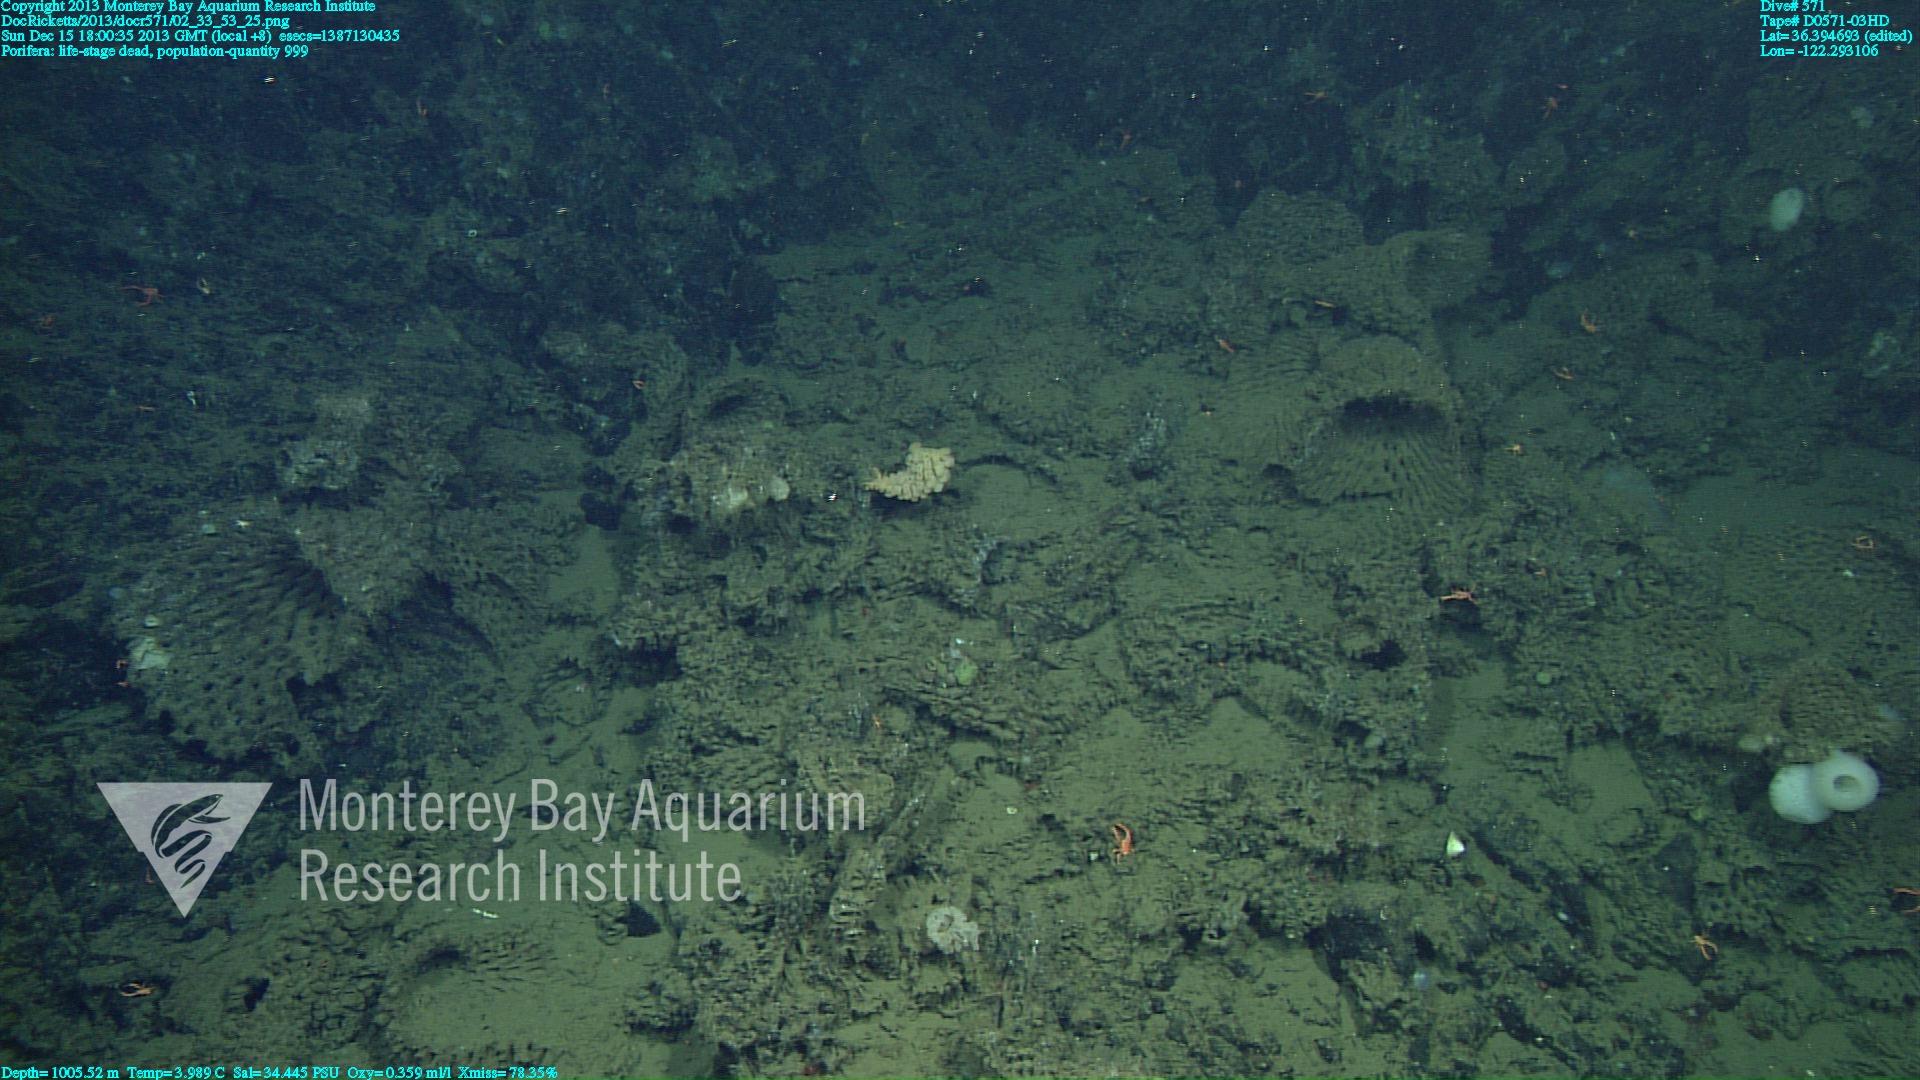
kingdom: Animalia
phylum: Porifera
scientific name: Porifera
